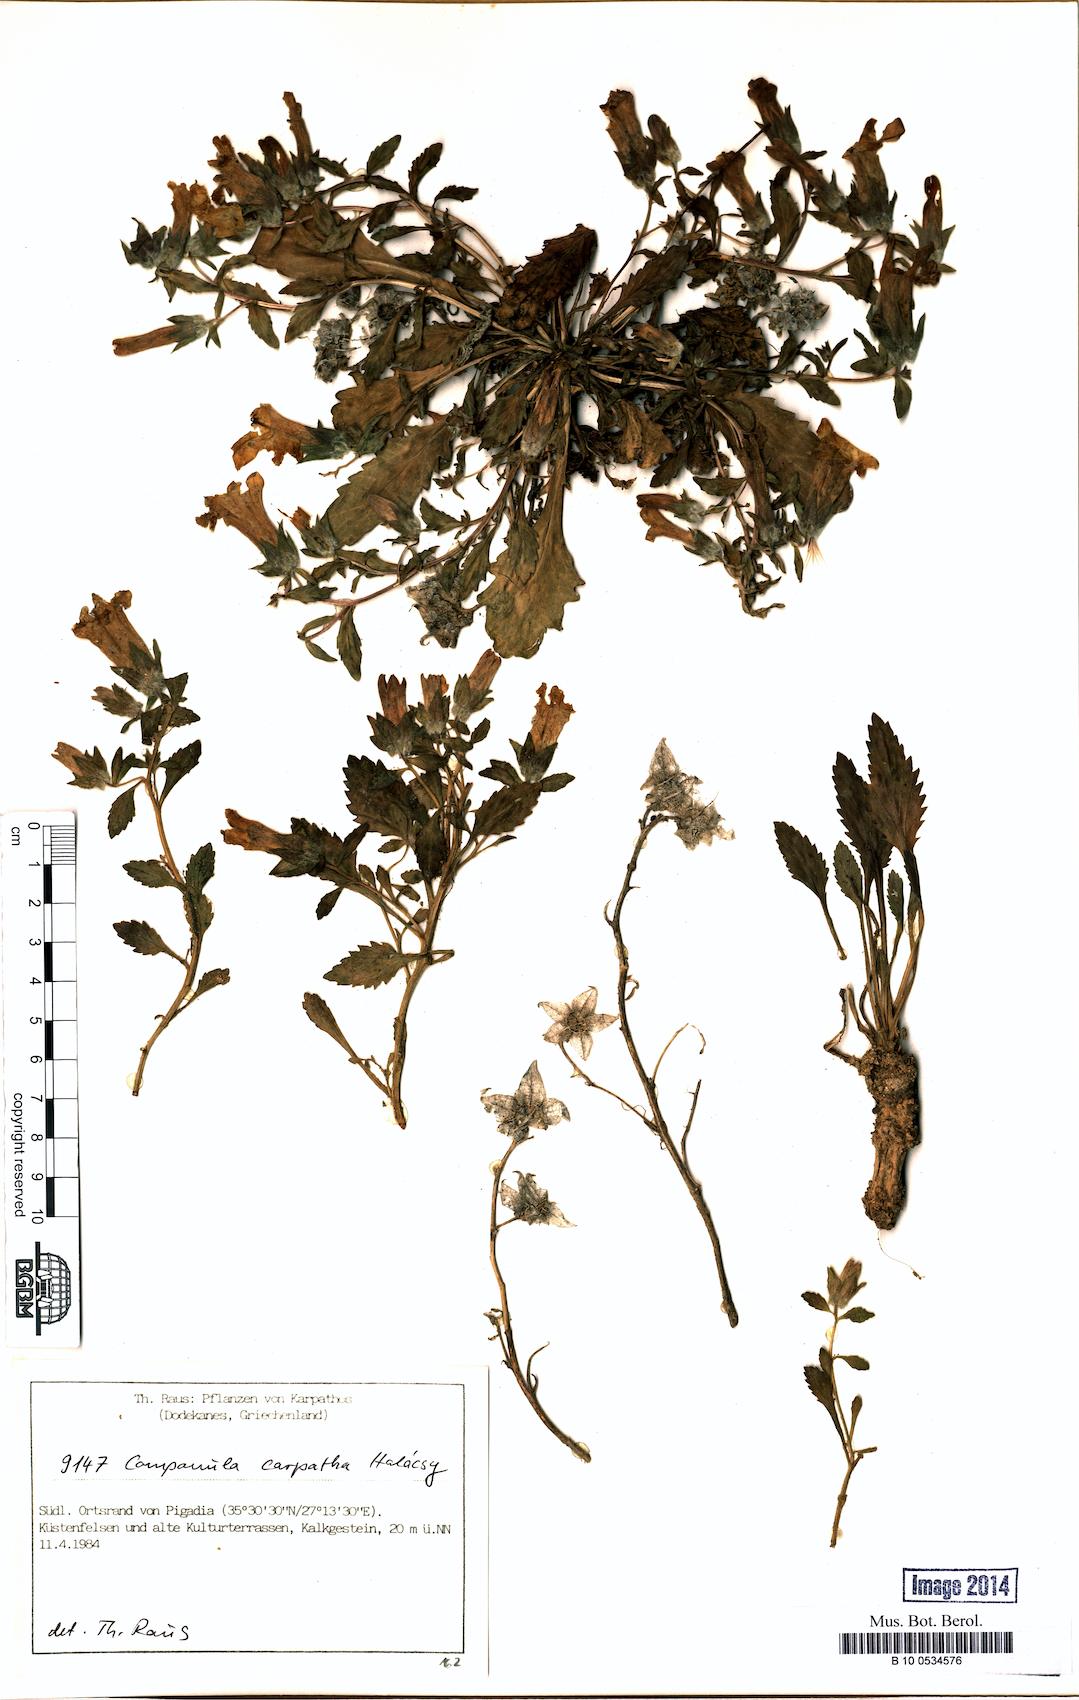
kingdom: Plantae
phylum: Tracheophyta
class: Magnoliopsida
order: Asterales
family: Campanulaceae
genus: Campanula
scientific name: Campanula carpatha
